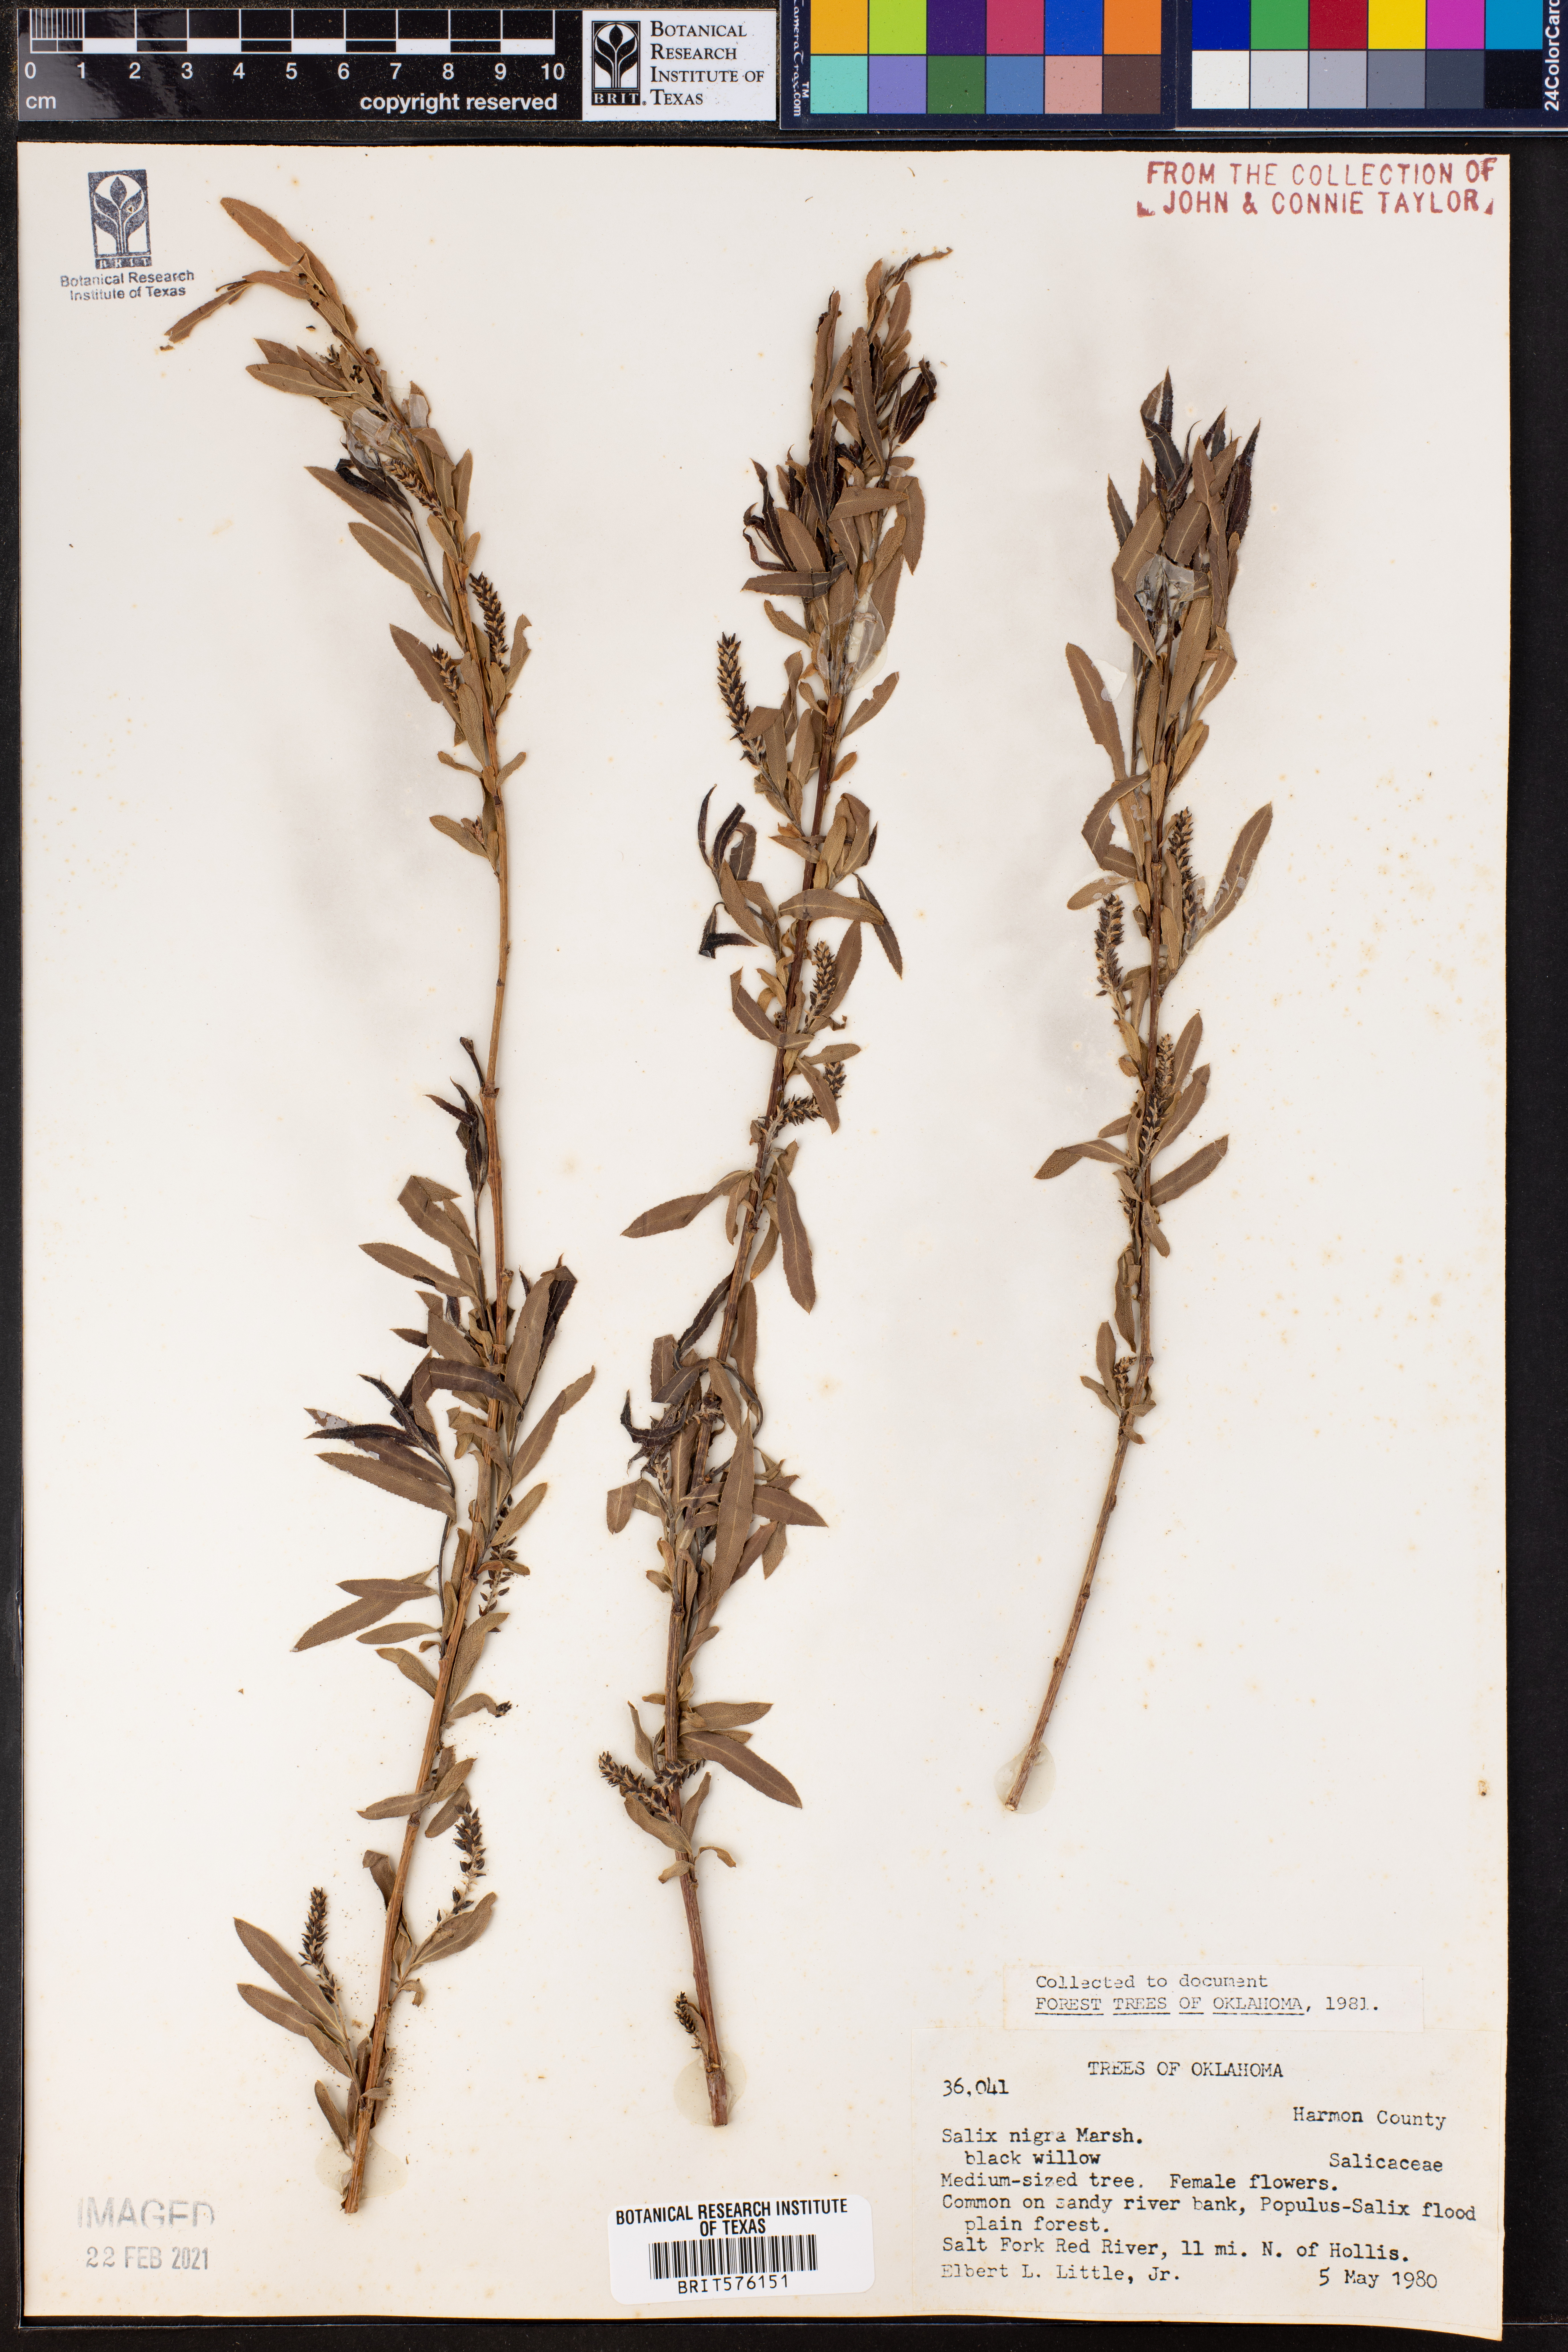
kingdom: Plantae
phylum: Tracheophyta
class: Magnoliopsida
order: Malpighiales
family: Salicaceae
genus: Salix
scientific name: Salix nigra
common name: Black willow
